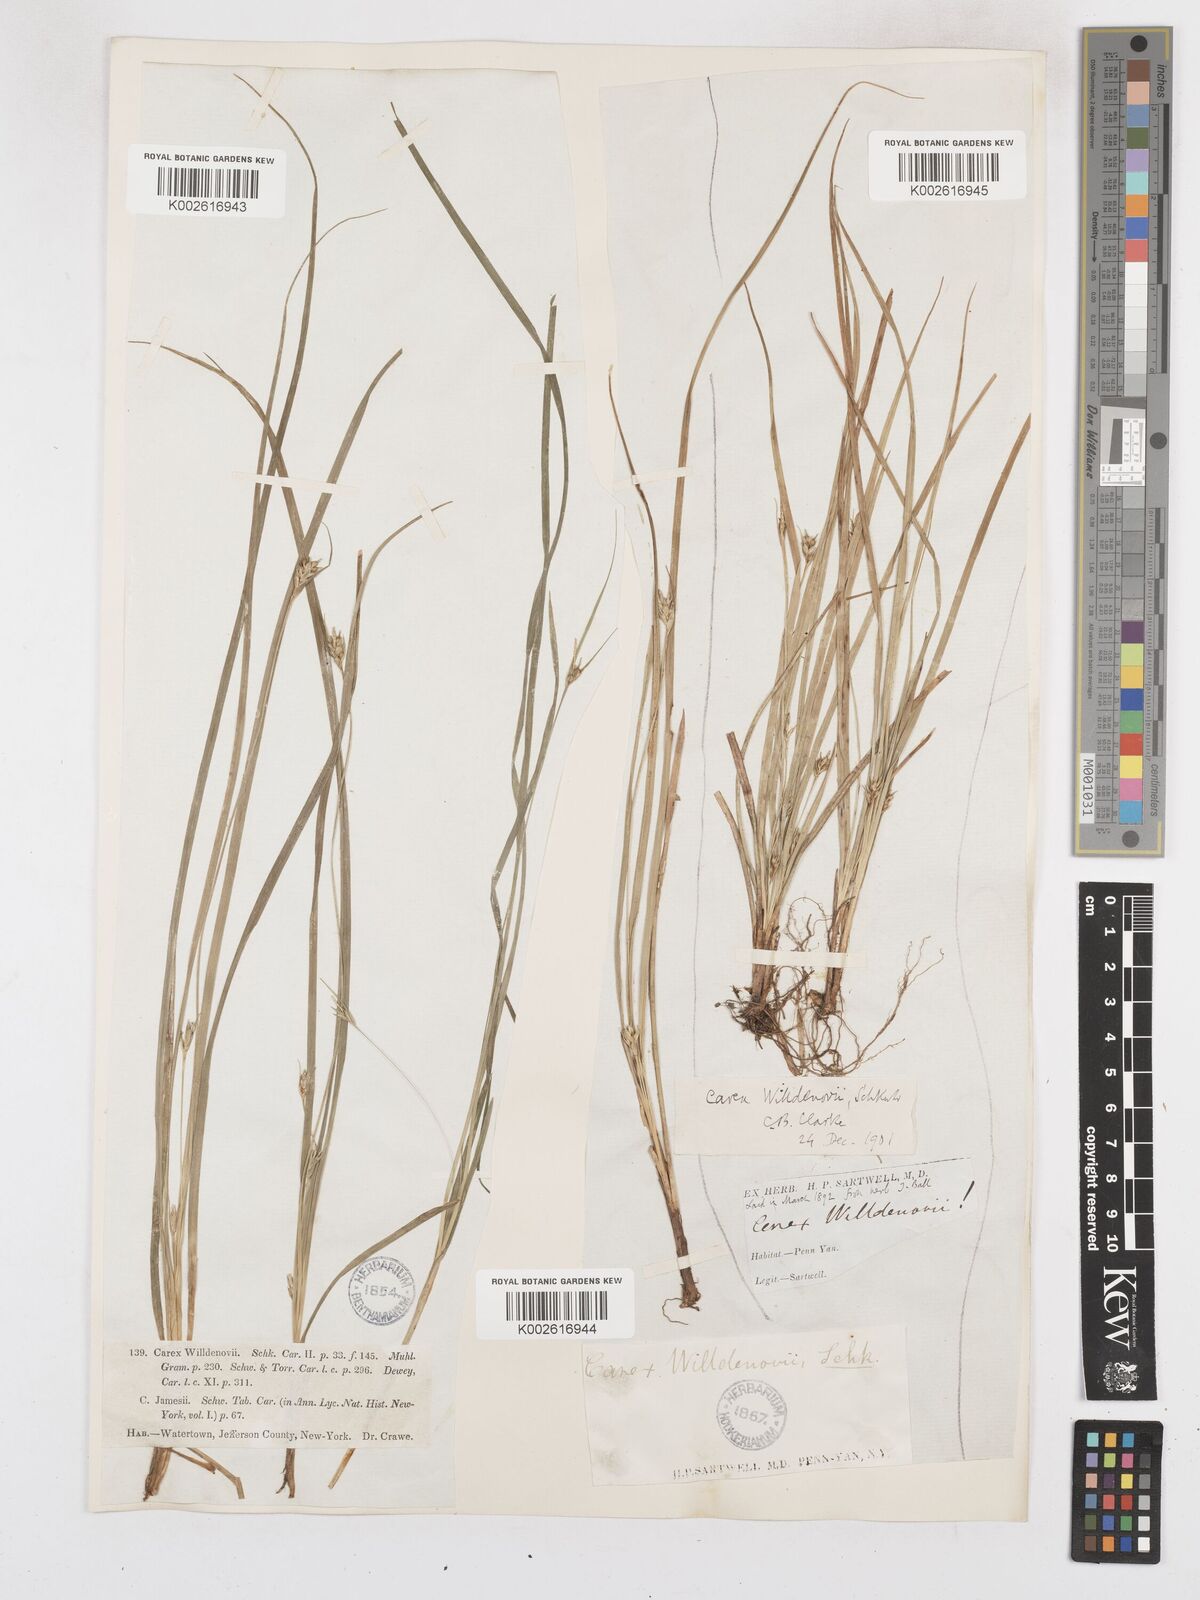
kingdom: Plantae
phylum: Tracheophyta
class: Liliopsida
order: Poales
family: Cyperaceae
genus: Carex
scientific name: Carex willdenowii
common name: Willdenow's sedge
